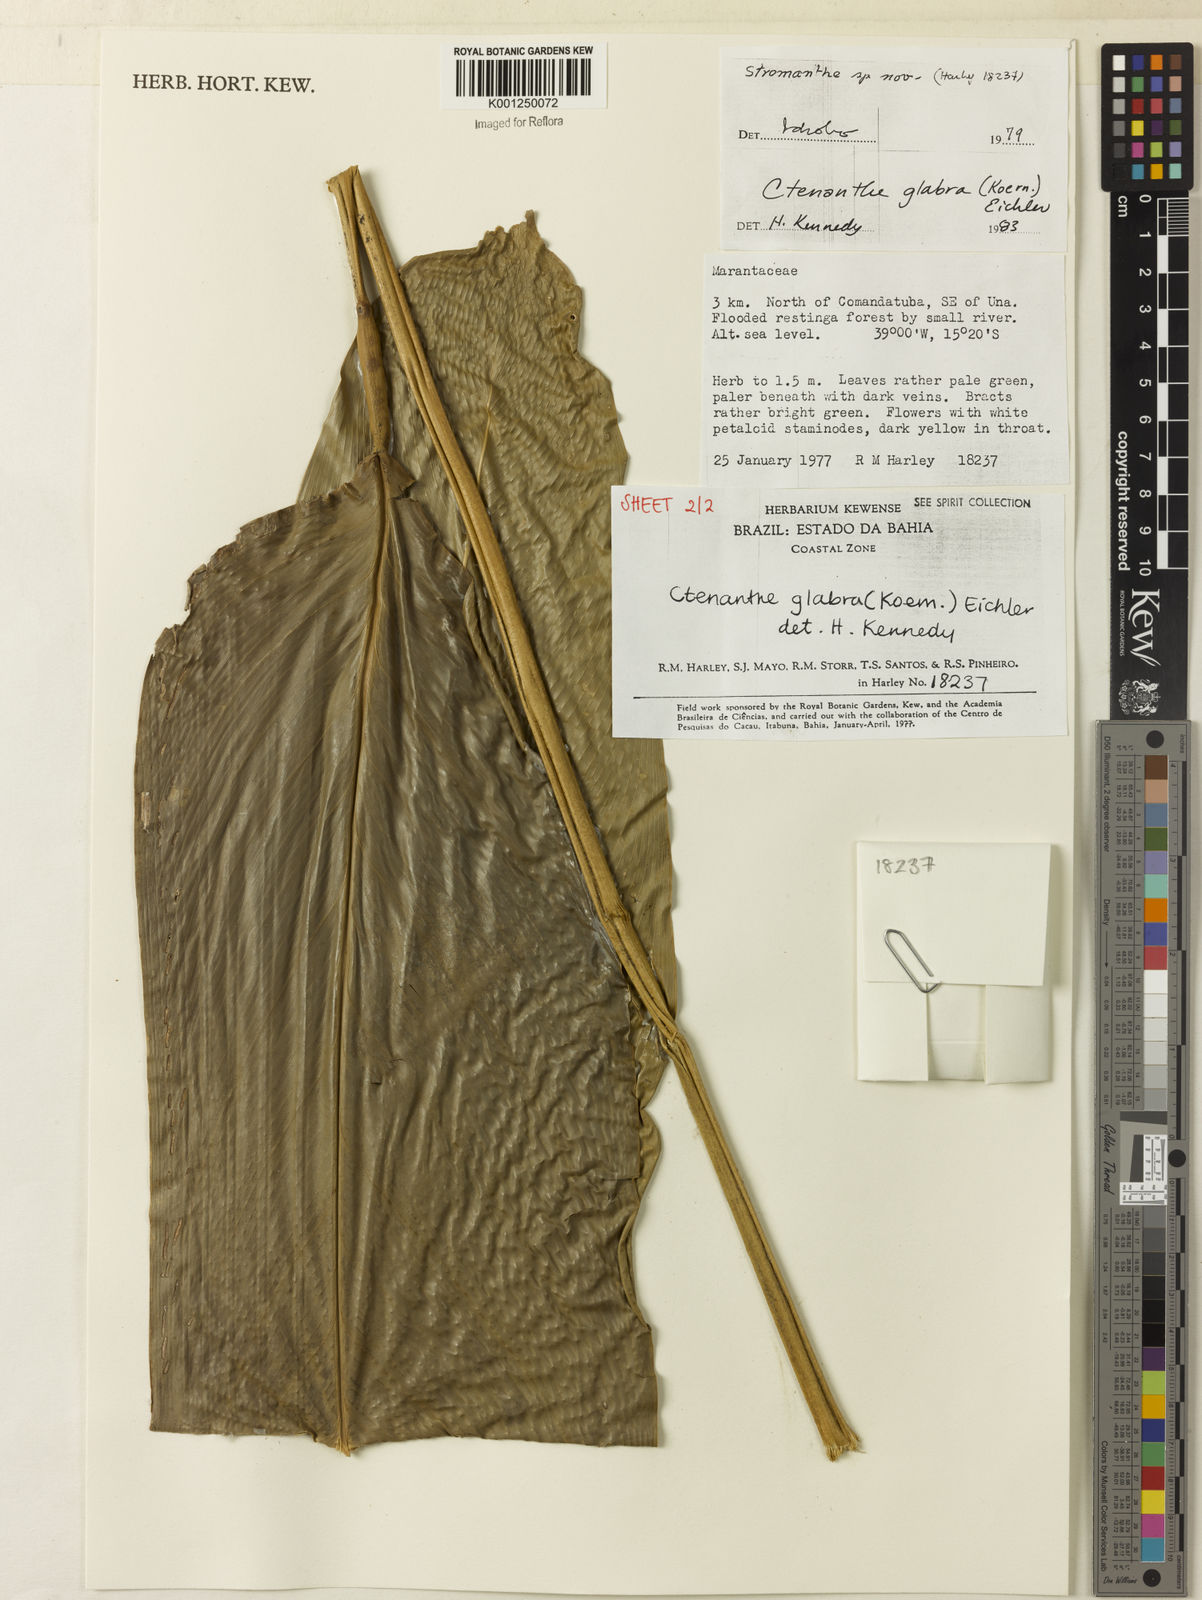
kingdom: Plantae
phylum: Tracheophyta
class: Liliopsida
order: Zingiberales
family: Marantaceae
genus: Ctenanthe
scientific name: Ctenanthe glabra
